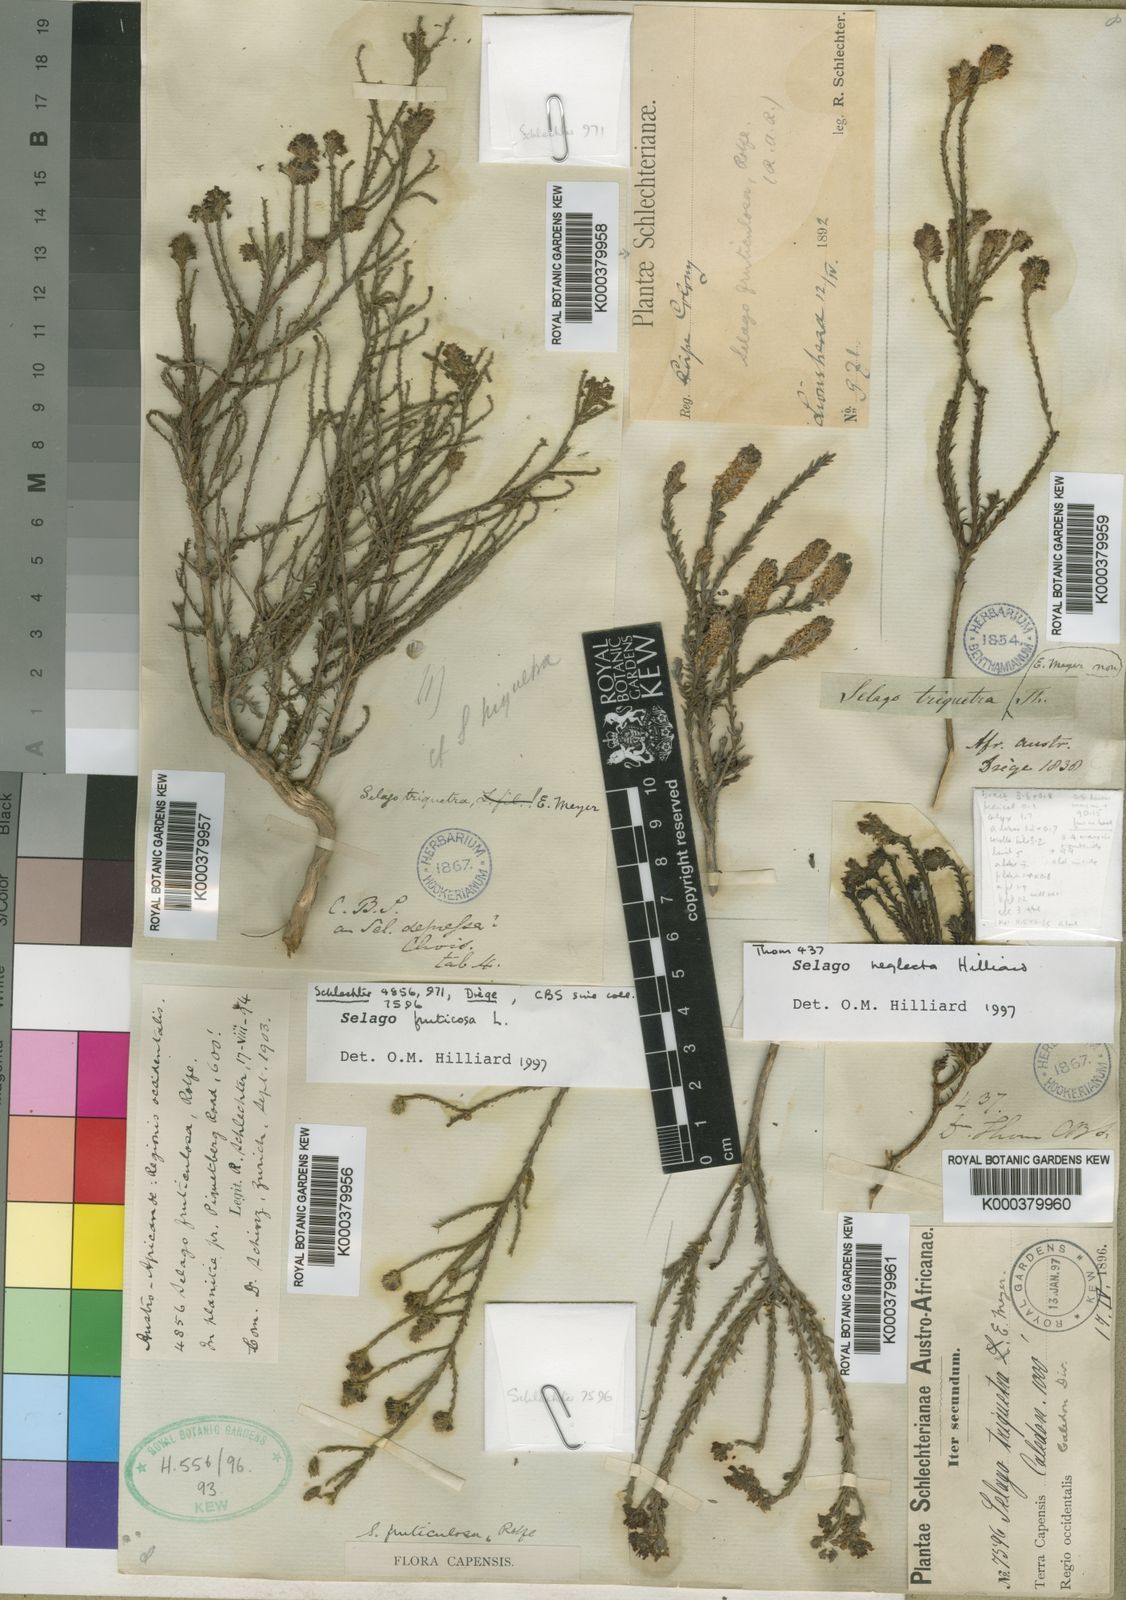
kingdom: Plantae
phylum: Tracheophyta
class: Magnoliopsida
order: Lamiales
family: Scrophulariaceae
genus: Selago
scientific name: Selago fruticosa
